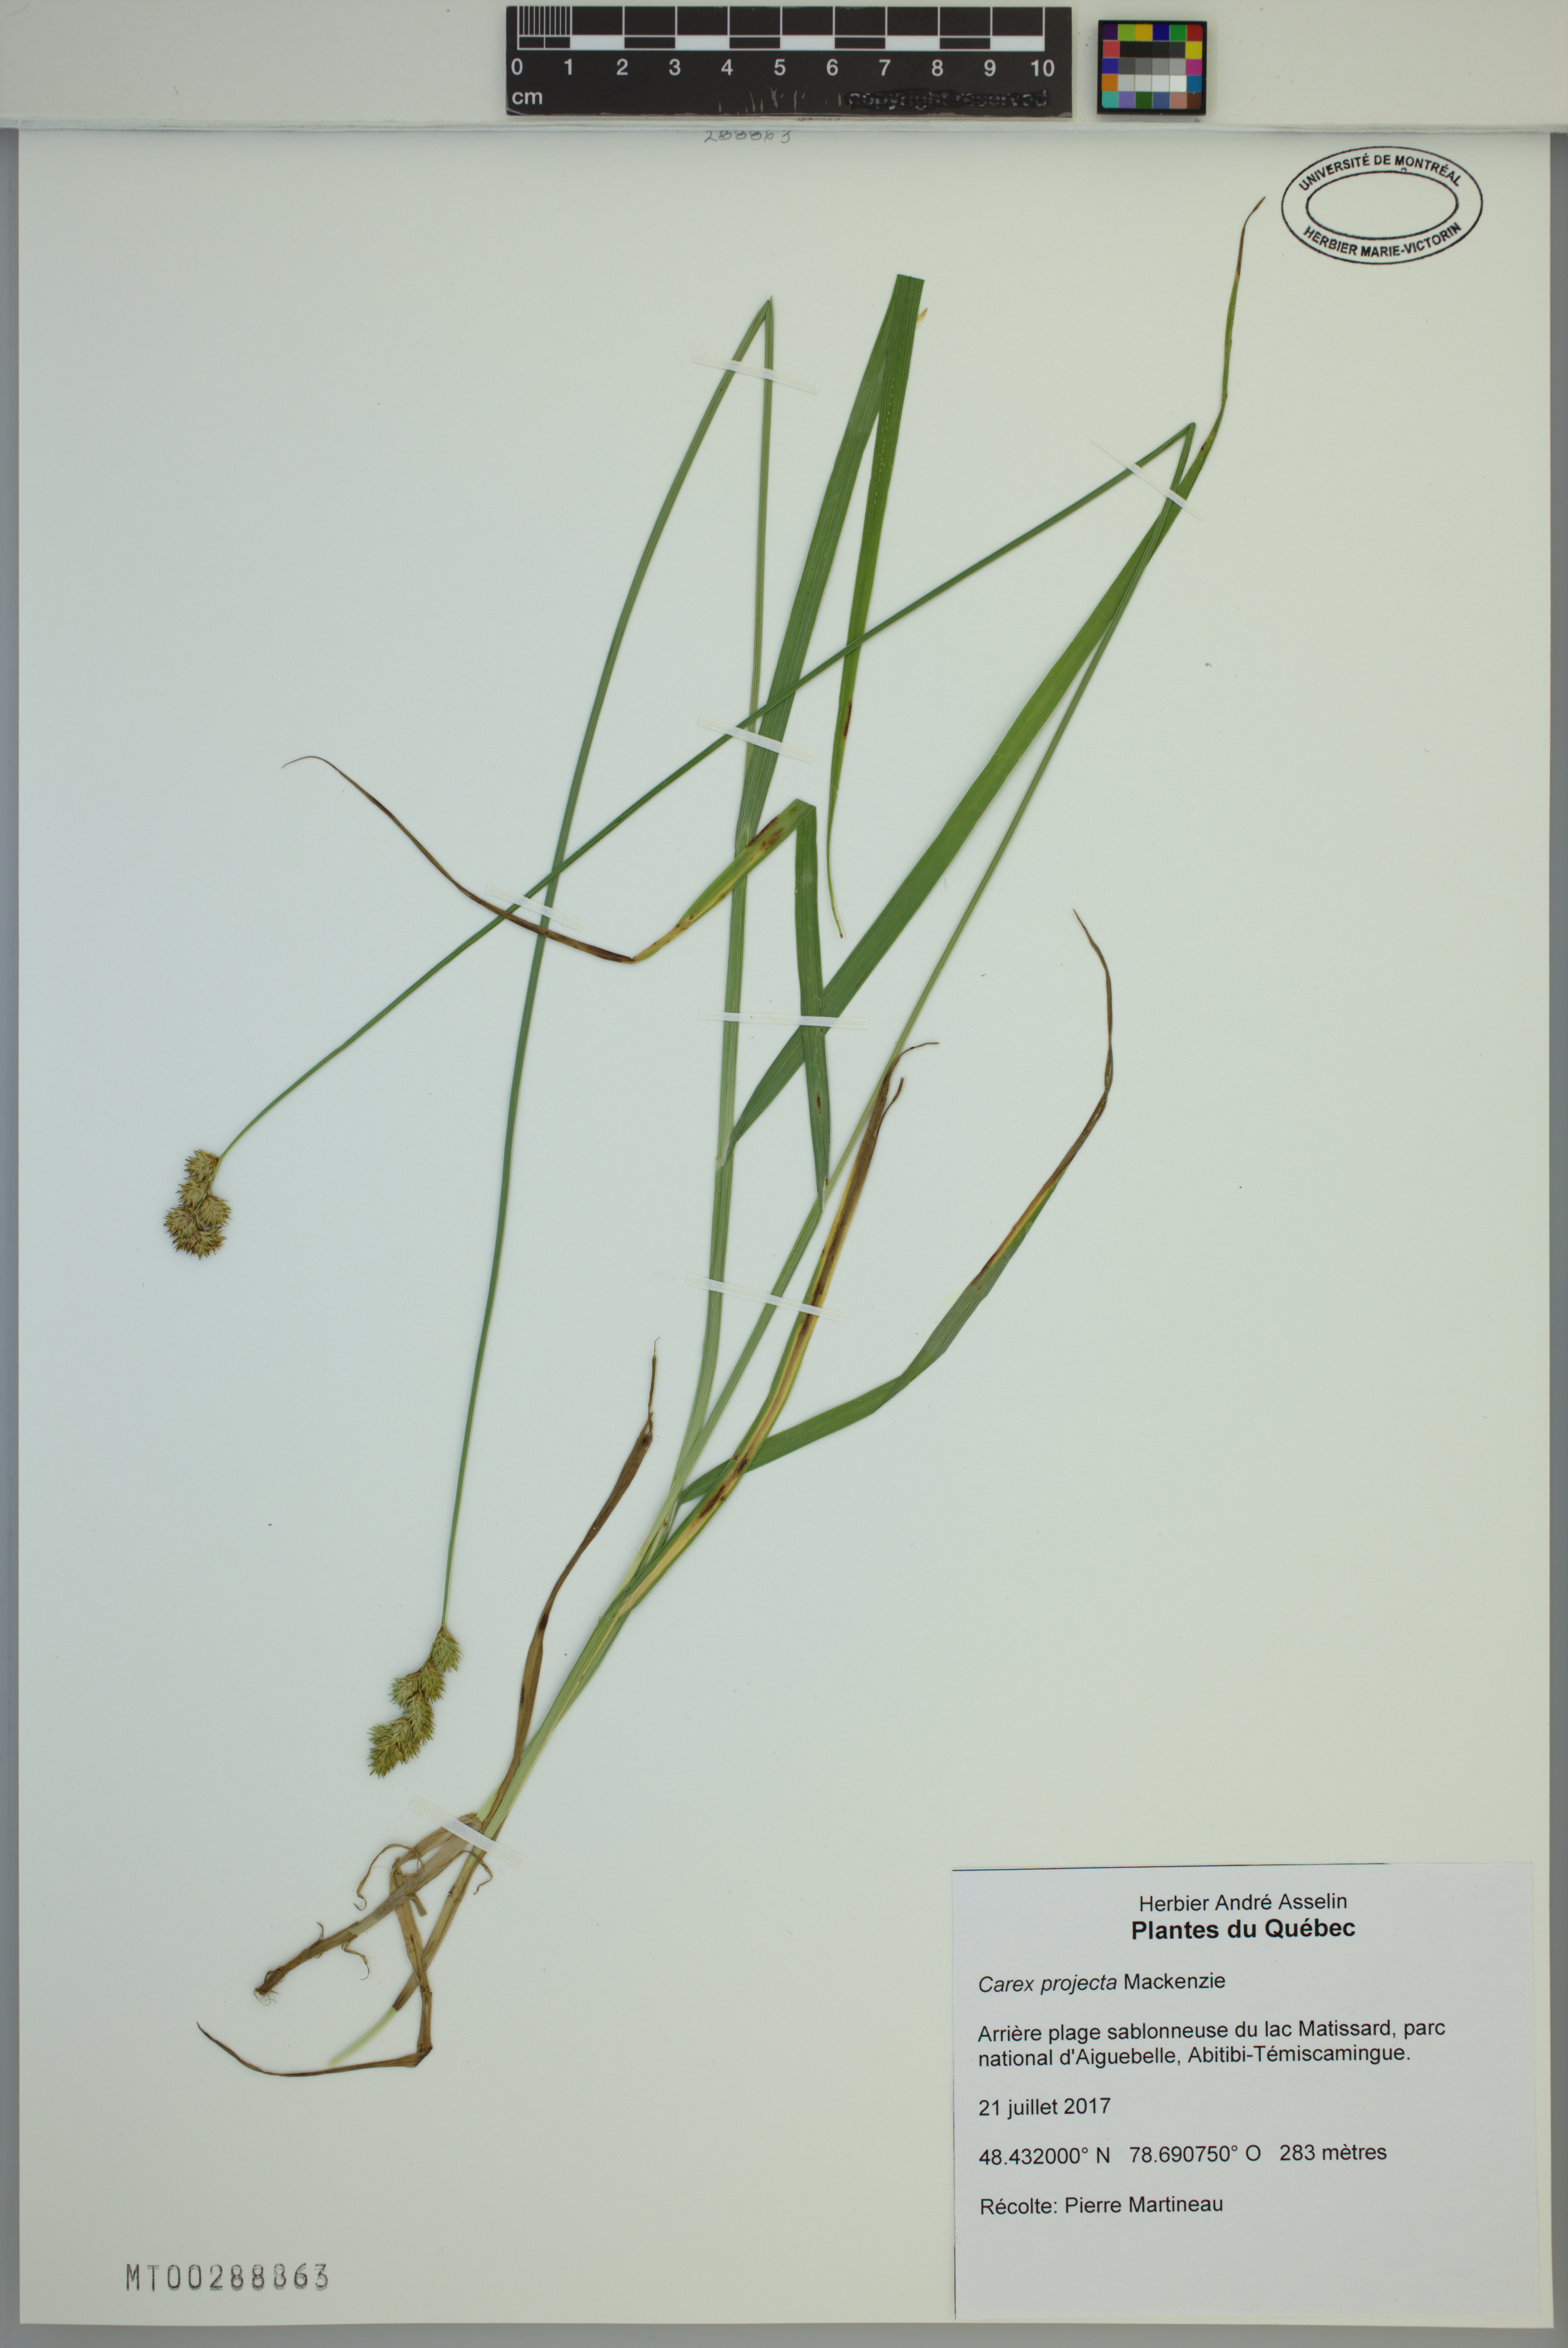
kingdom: Plantae
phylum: Tracheophyta
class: Liliopsida
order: Poales
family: Cyperaceae
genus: Carex
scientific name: Carex projecta
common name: Loose-headed oval sedge
